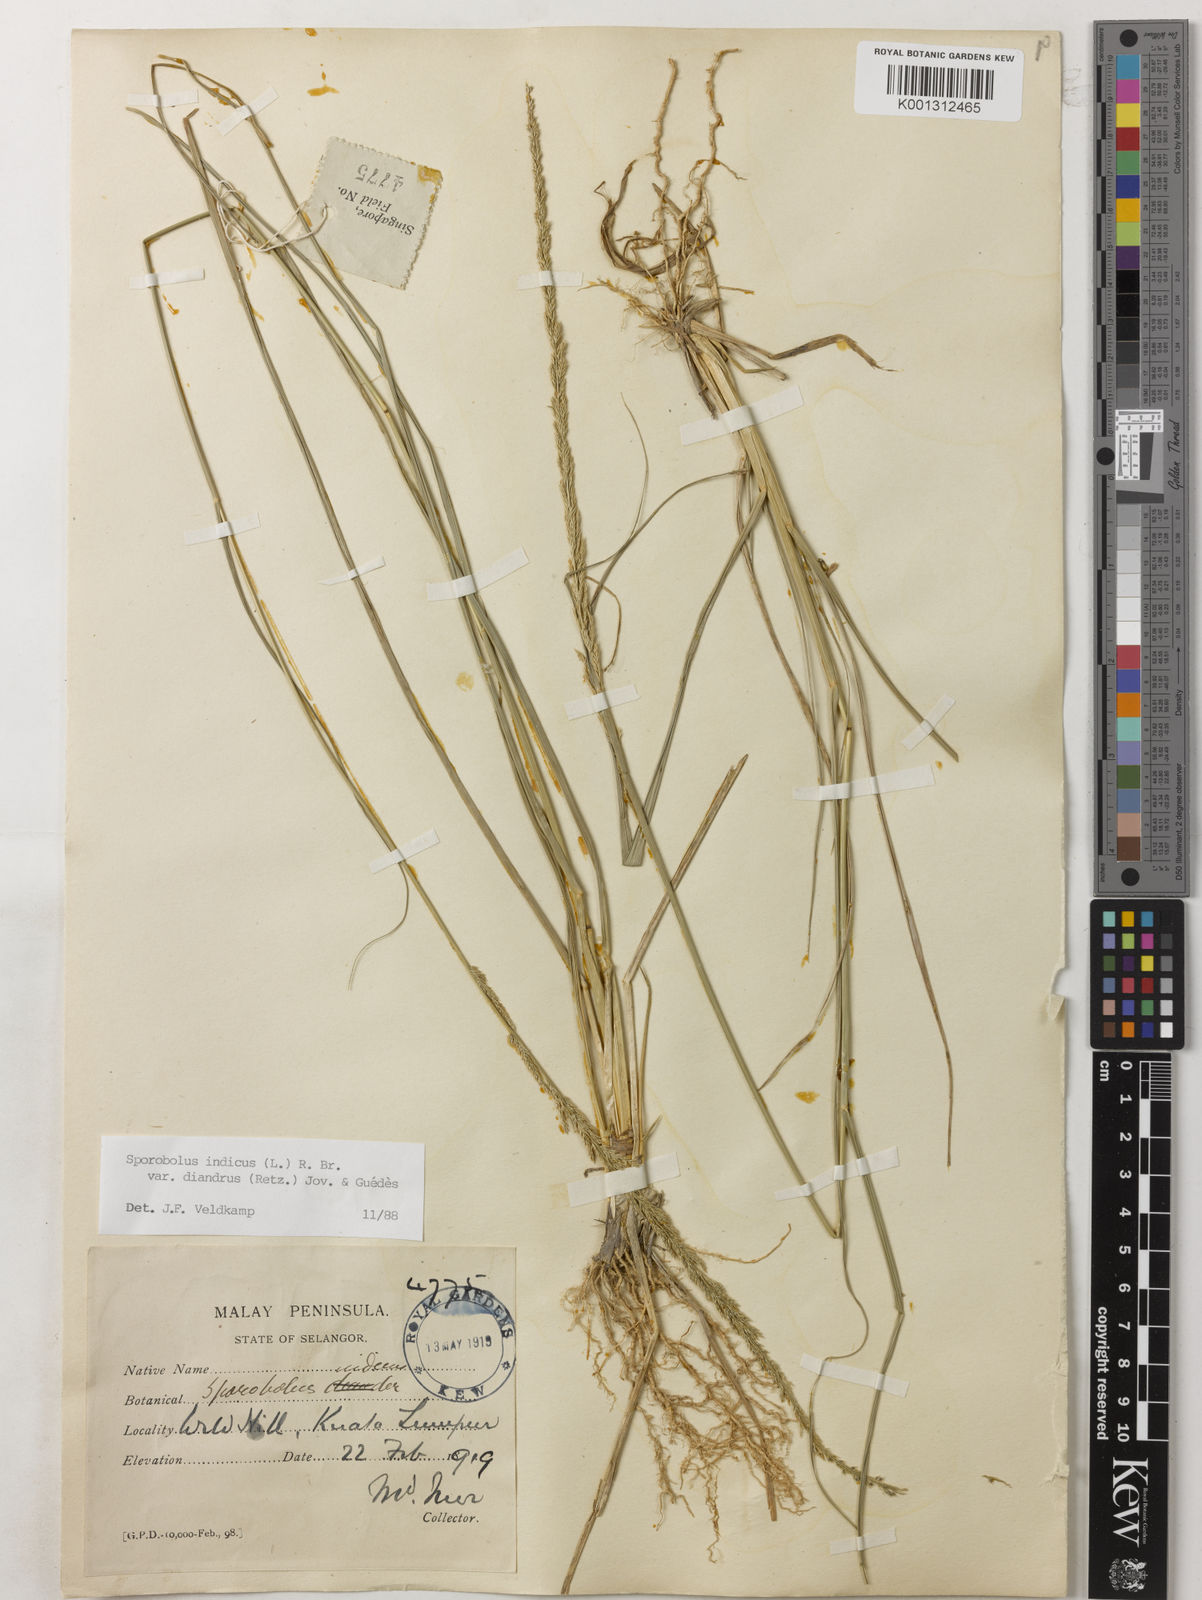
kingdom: Plantae
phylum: Tracheophyta
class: Liliopsida
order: Poales
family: Poaceae
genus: Sporobolus
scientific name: Sporobolus diandrus
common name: Tussock dropseed
